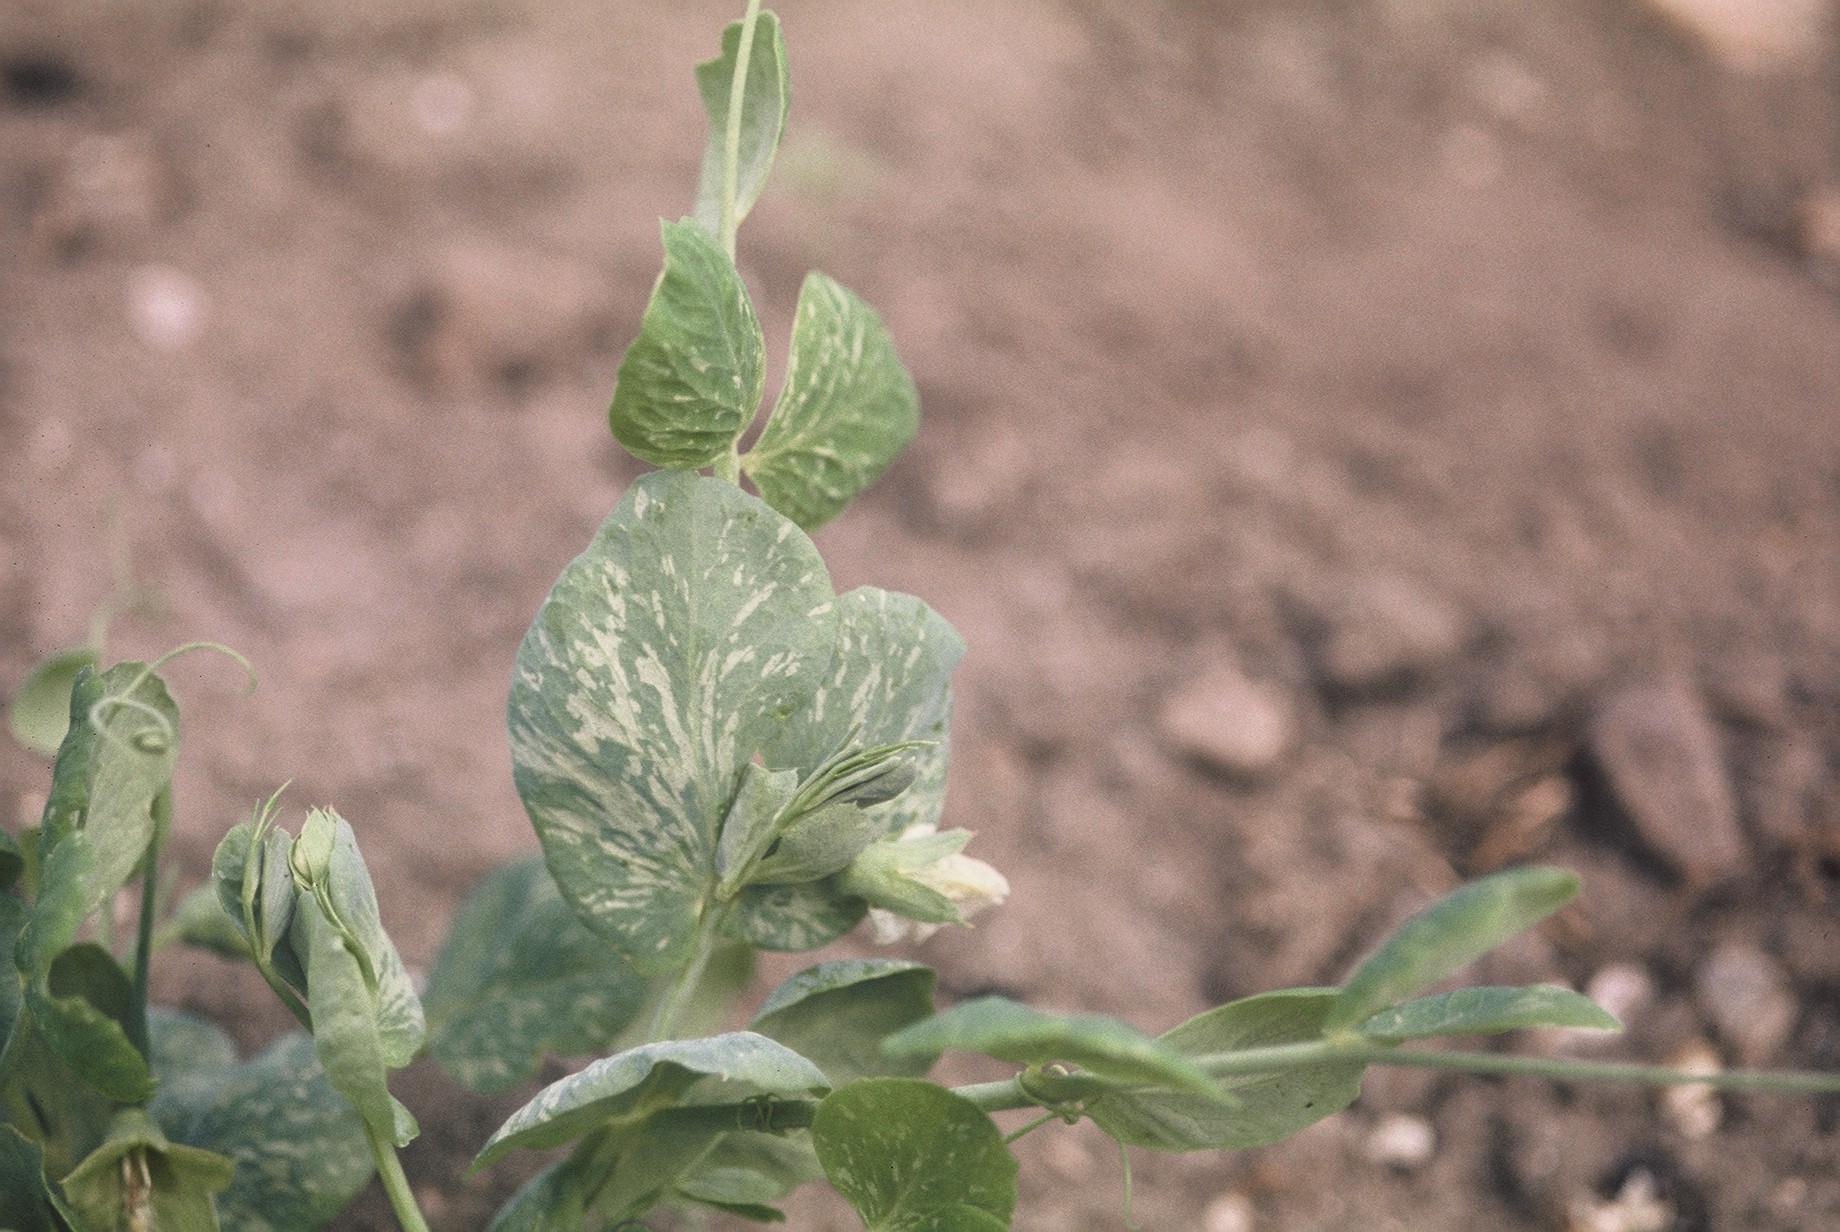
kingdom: Plantae
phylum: Tracheophyta
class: Magnoliopsida
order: Fabales
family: Fabaceae
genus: Lathyrus
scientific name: Lathyrus oleraceus
